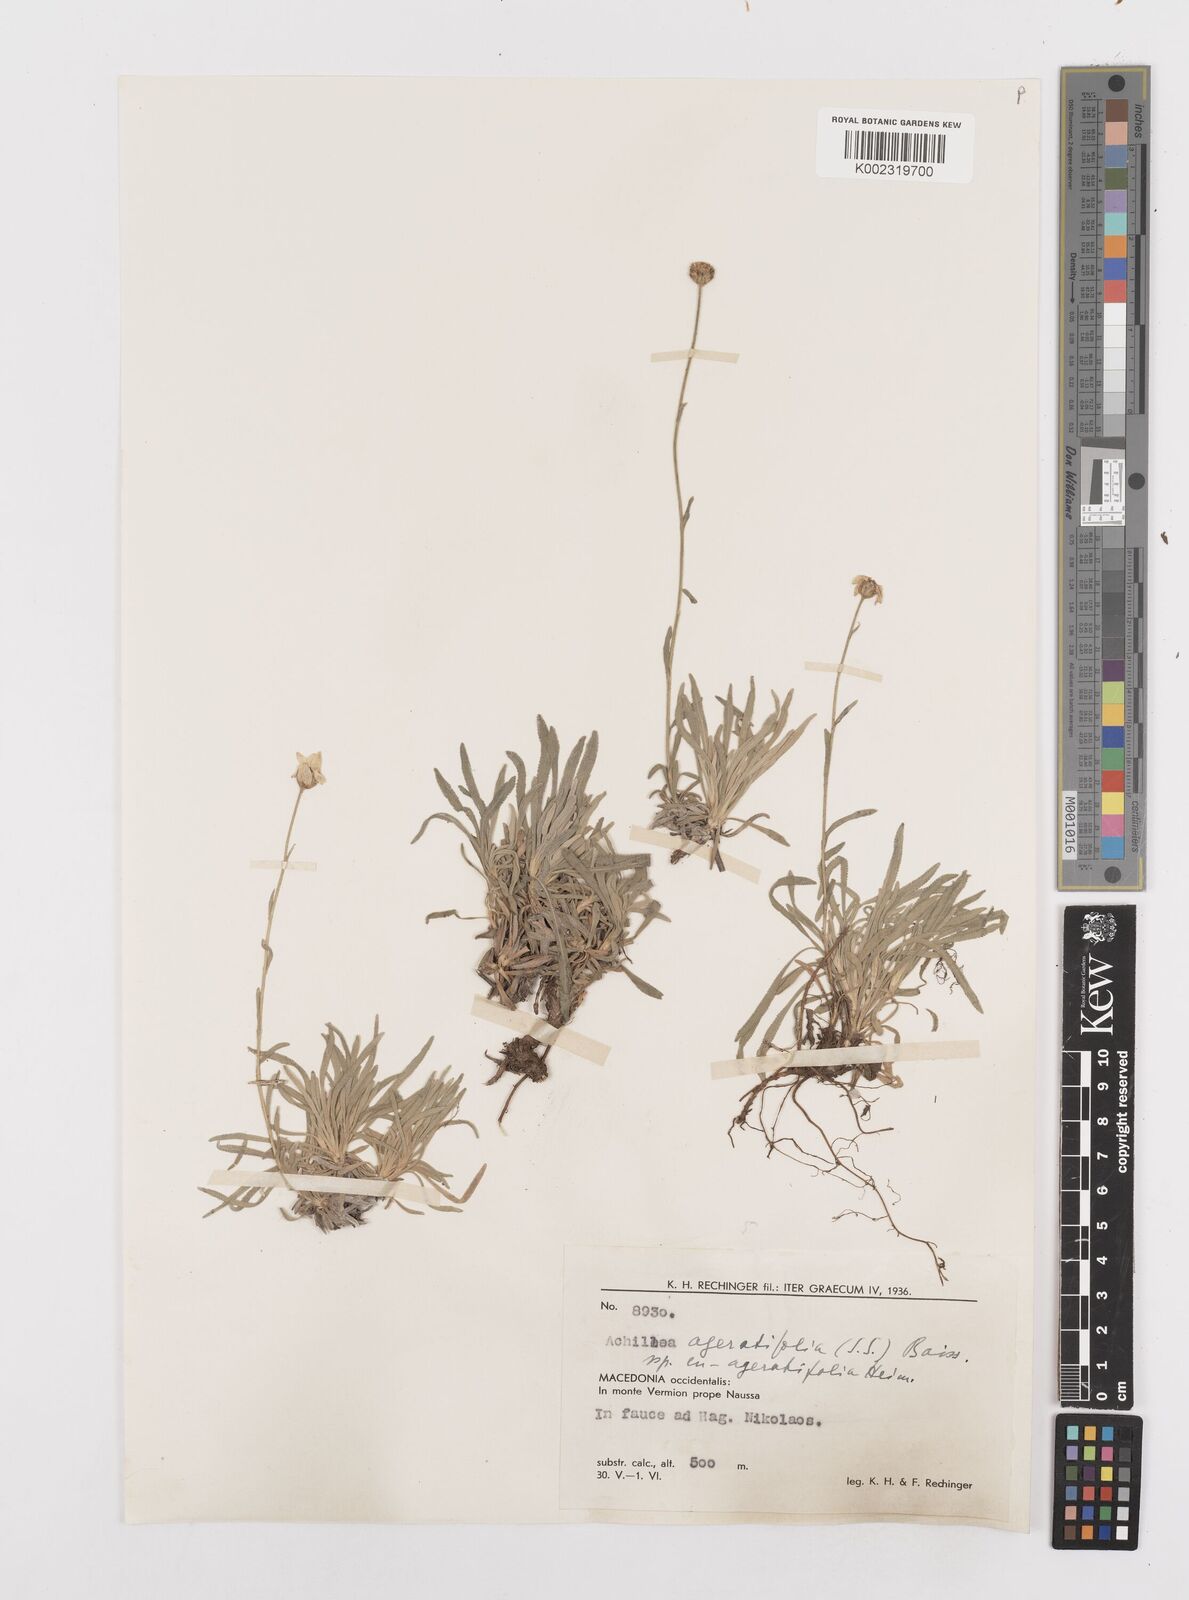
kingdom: Plantae
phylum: Tracheophyta
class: Magnoliopsida
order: Asterales
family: Asteraceae
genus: Achillea
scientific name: Achillea ageratifolia
